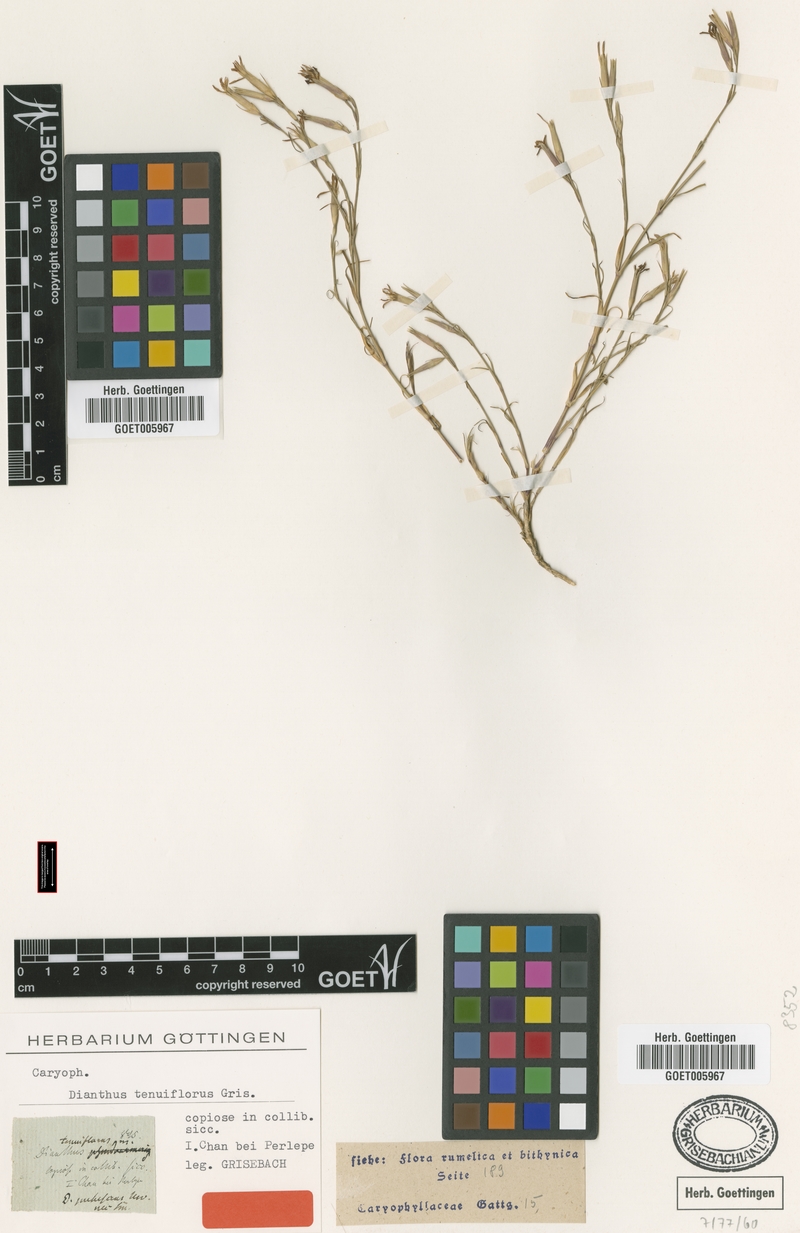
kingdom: Plantae
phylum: Tracheophyta
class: Magnoliopsida
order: Caryophyllales
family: Caryophyllaceae
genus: Dianthus
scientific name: Dianthus tenuiflorus
